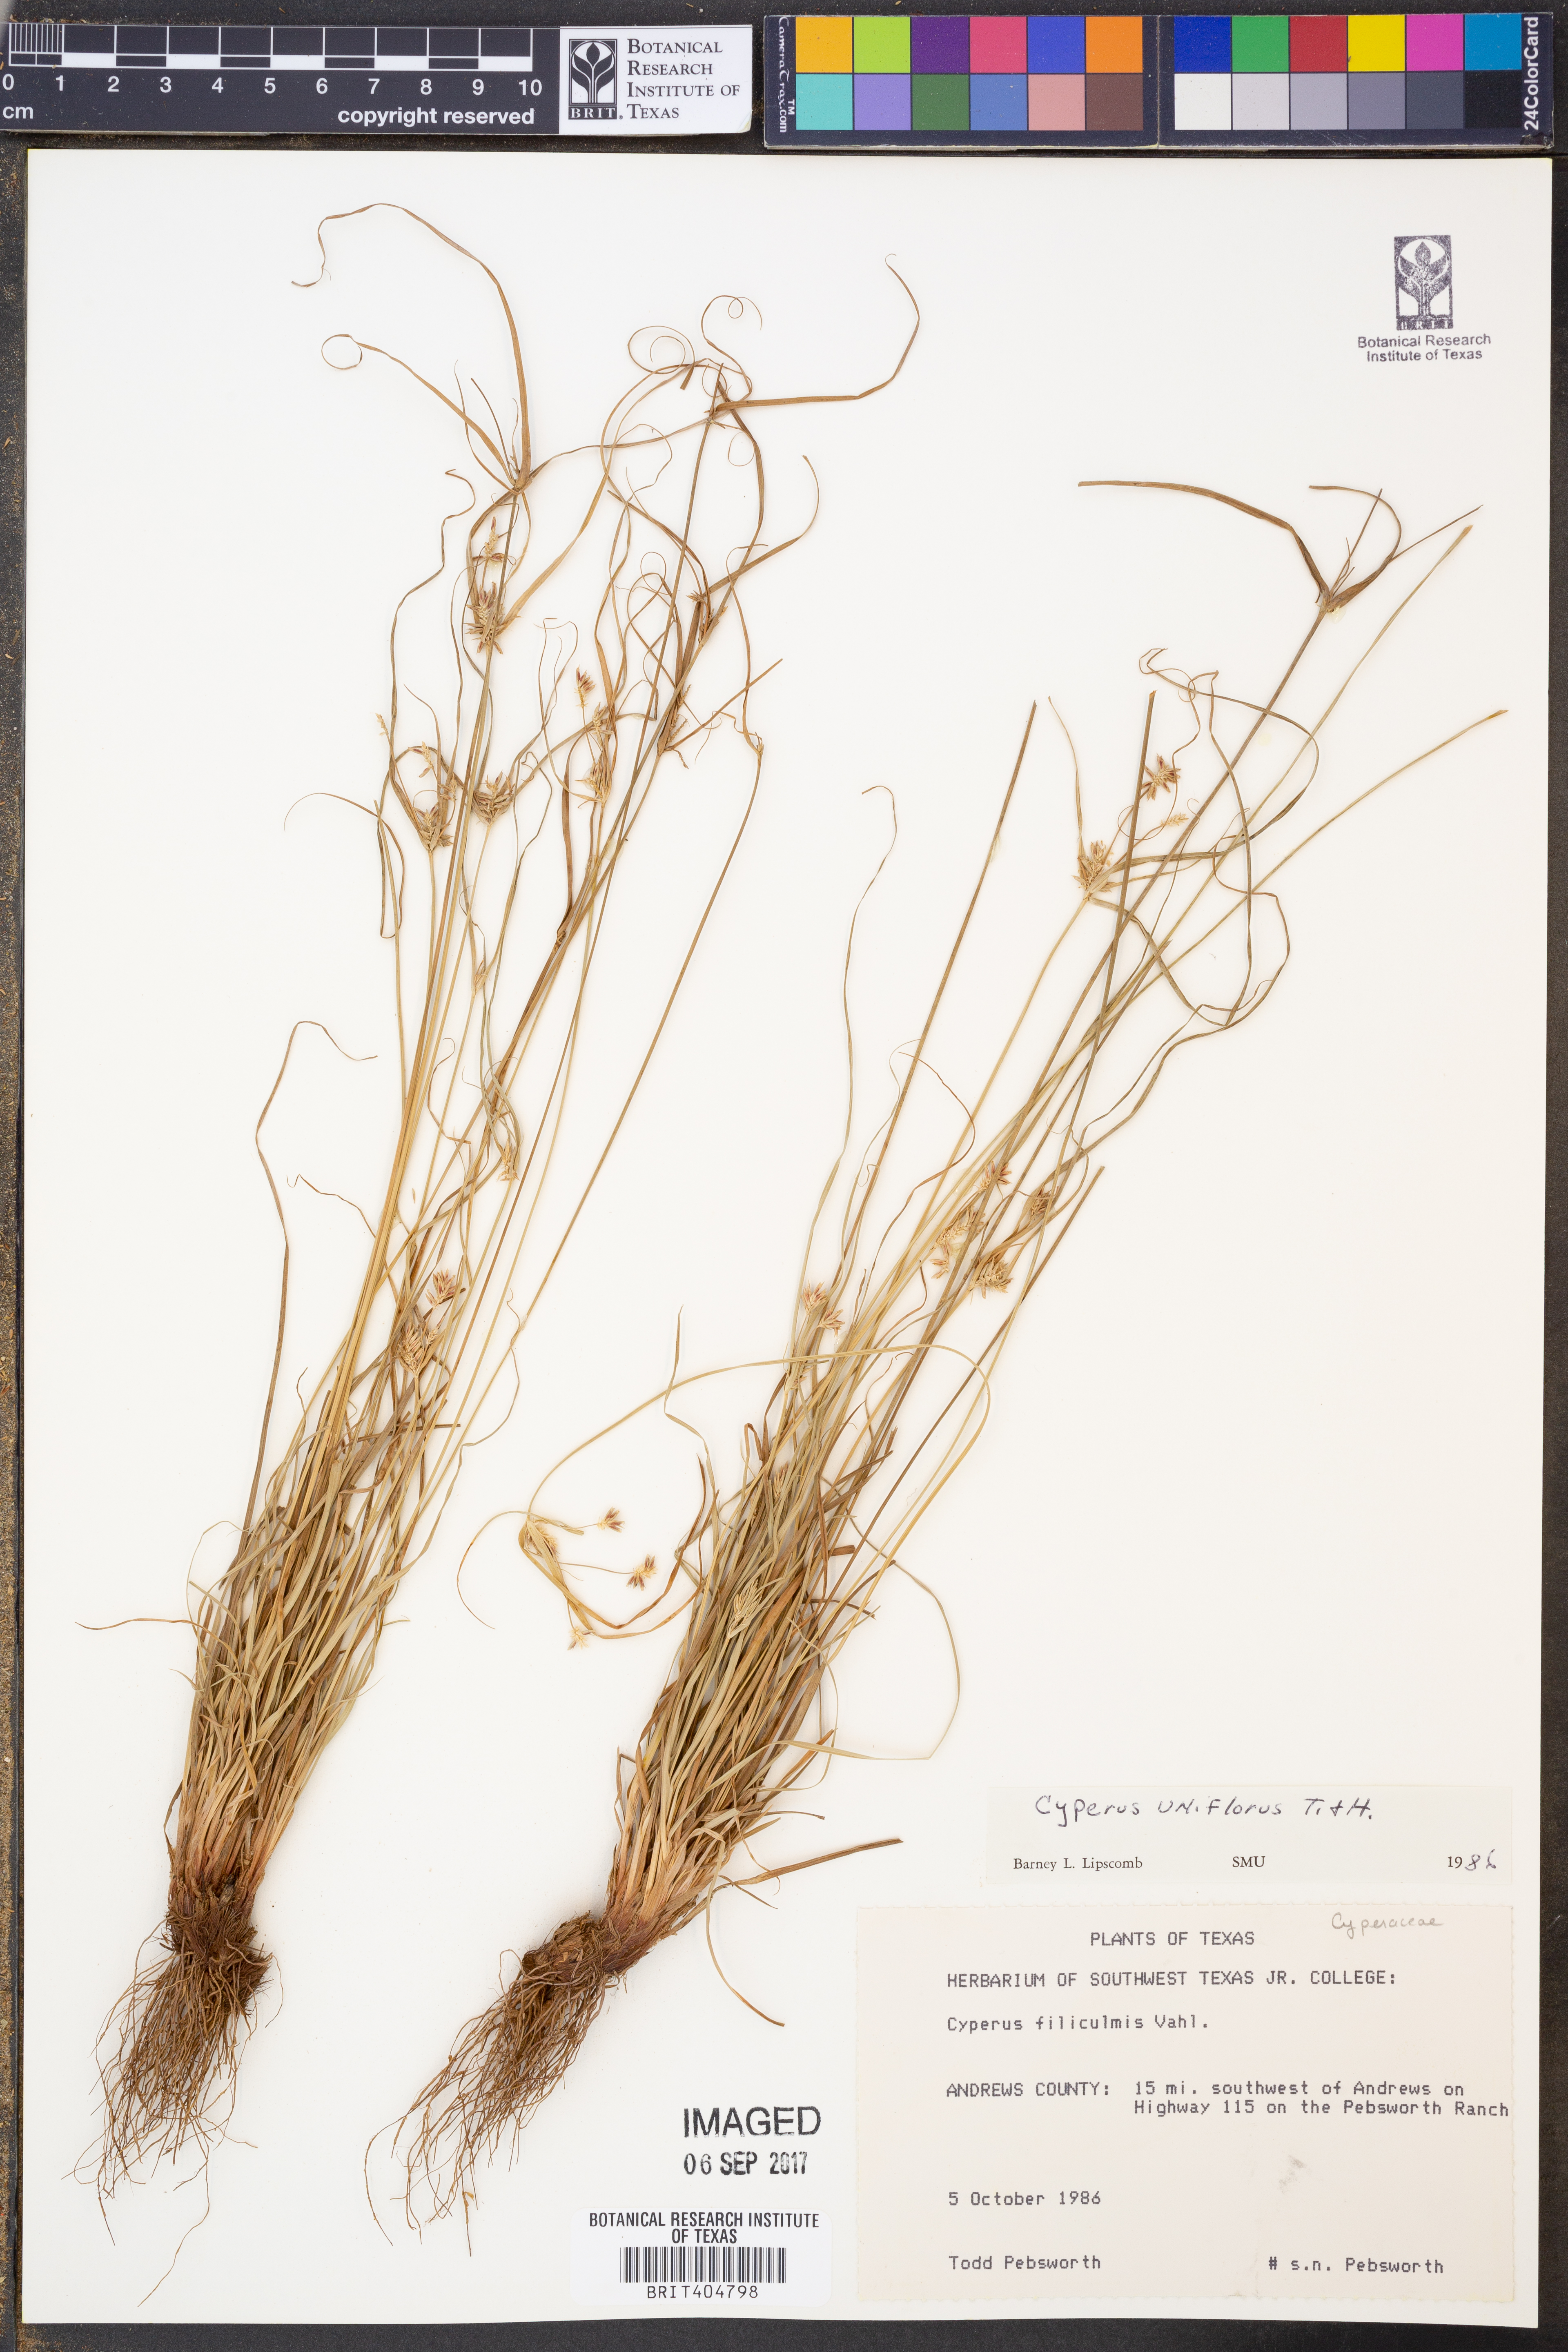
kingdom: Plantae
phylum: Tracheophyta
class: Liliopsida
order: Poales
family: Cyperaceae
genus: Cyperus
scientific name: Cyperus retroflexus
